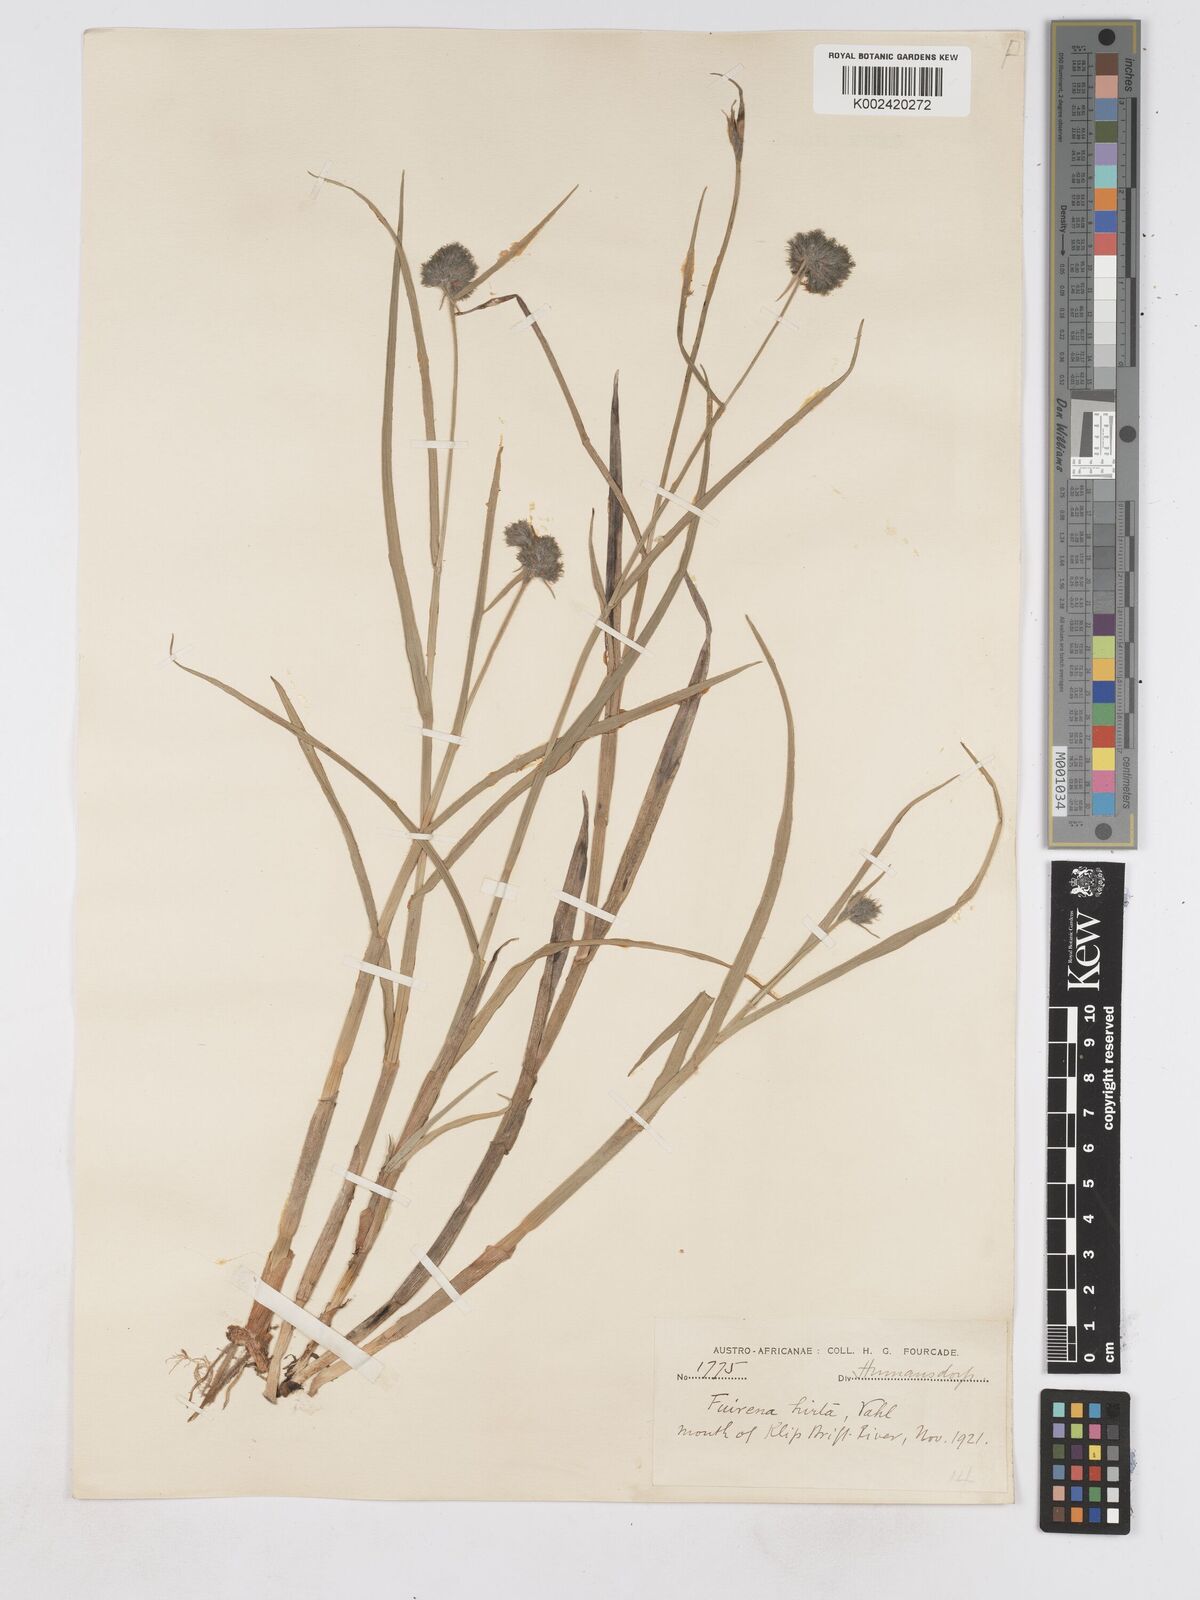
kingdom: Plantae
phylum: Tracheophyta
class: Liliopsida
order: Poales
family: Cyperaceae
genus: Fuirena
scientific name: Fuirena hirsuta
